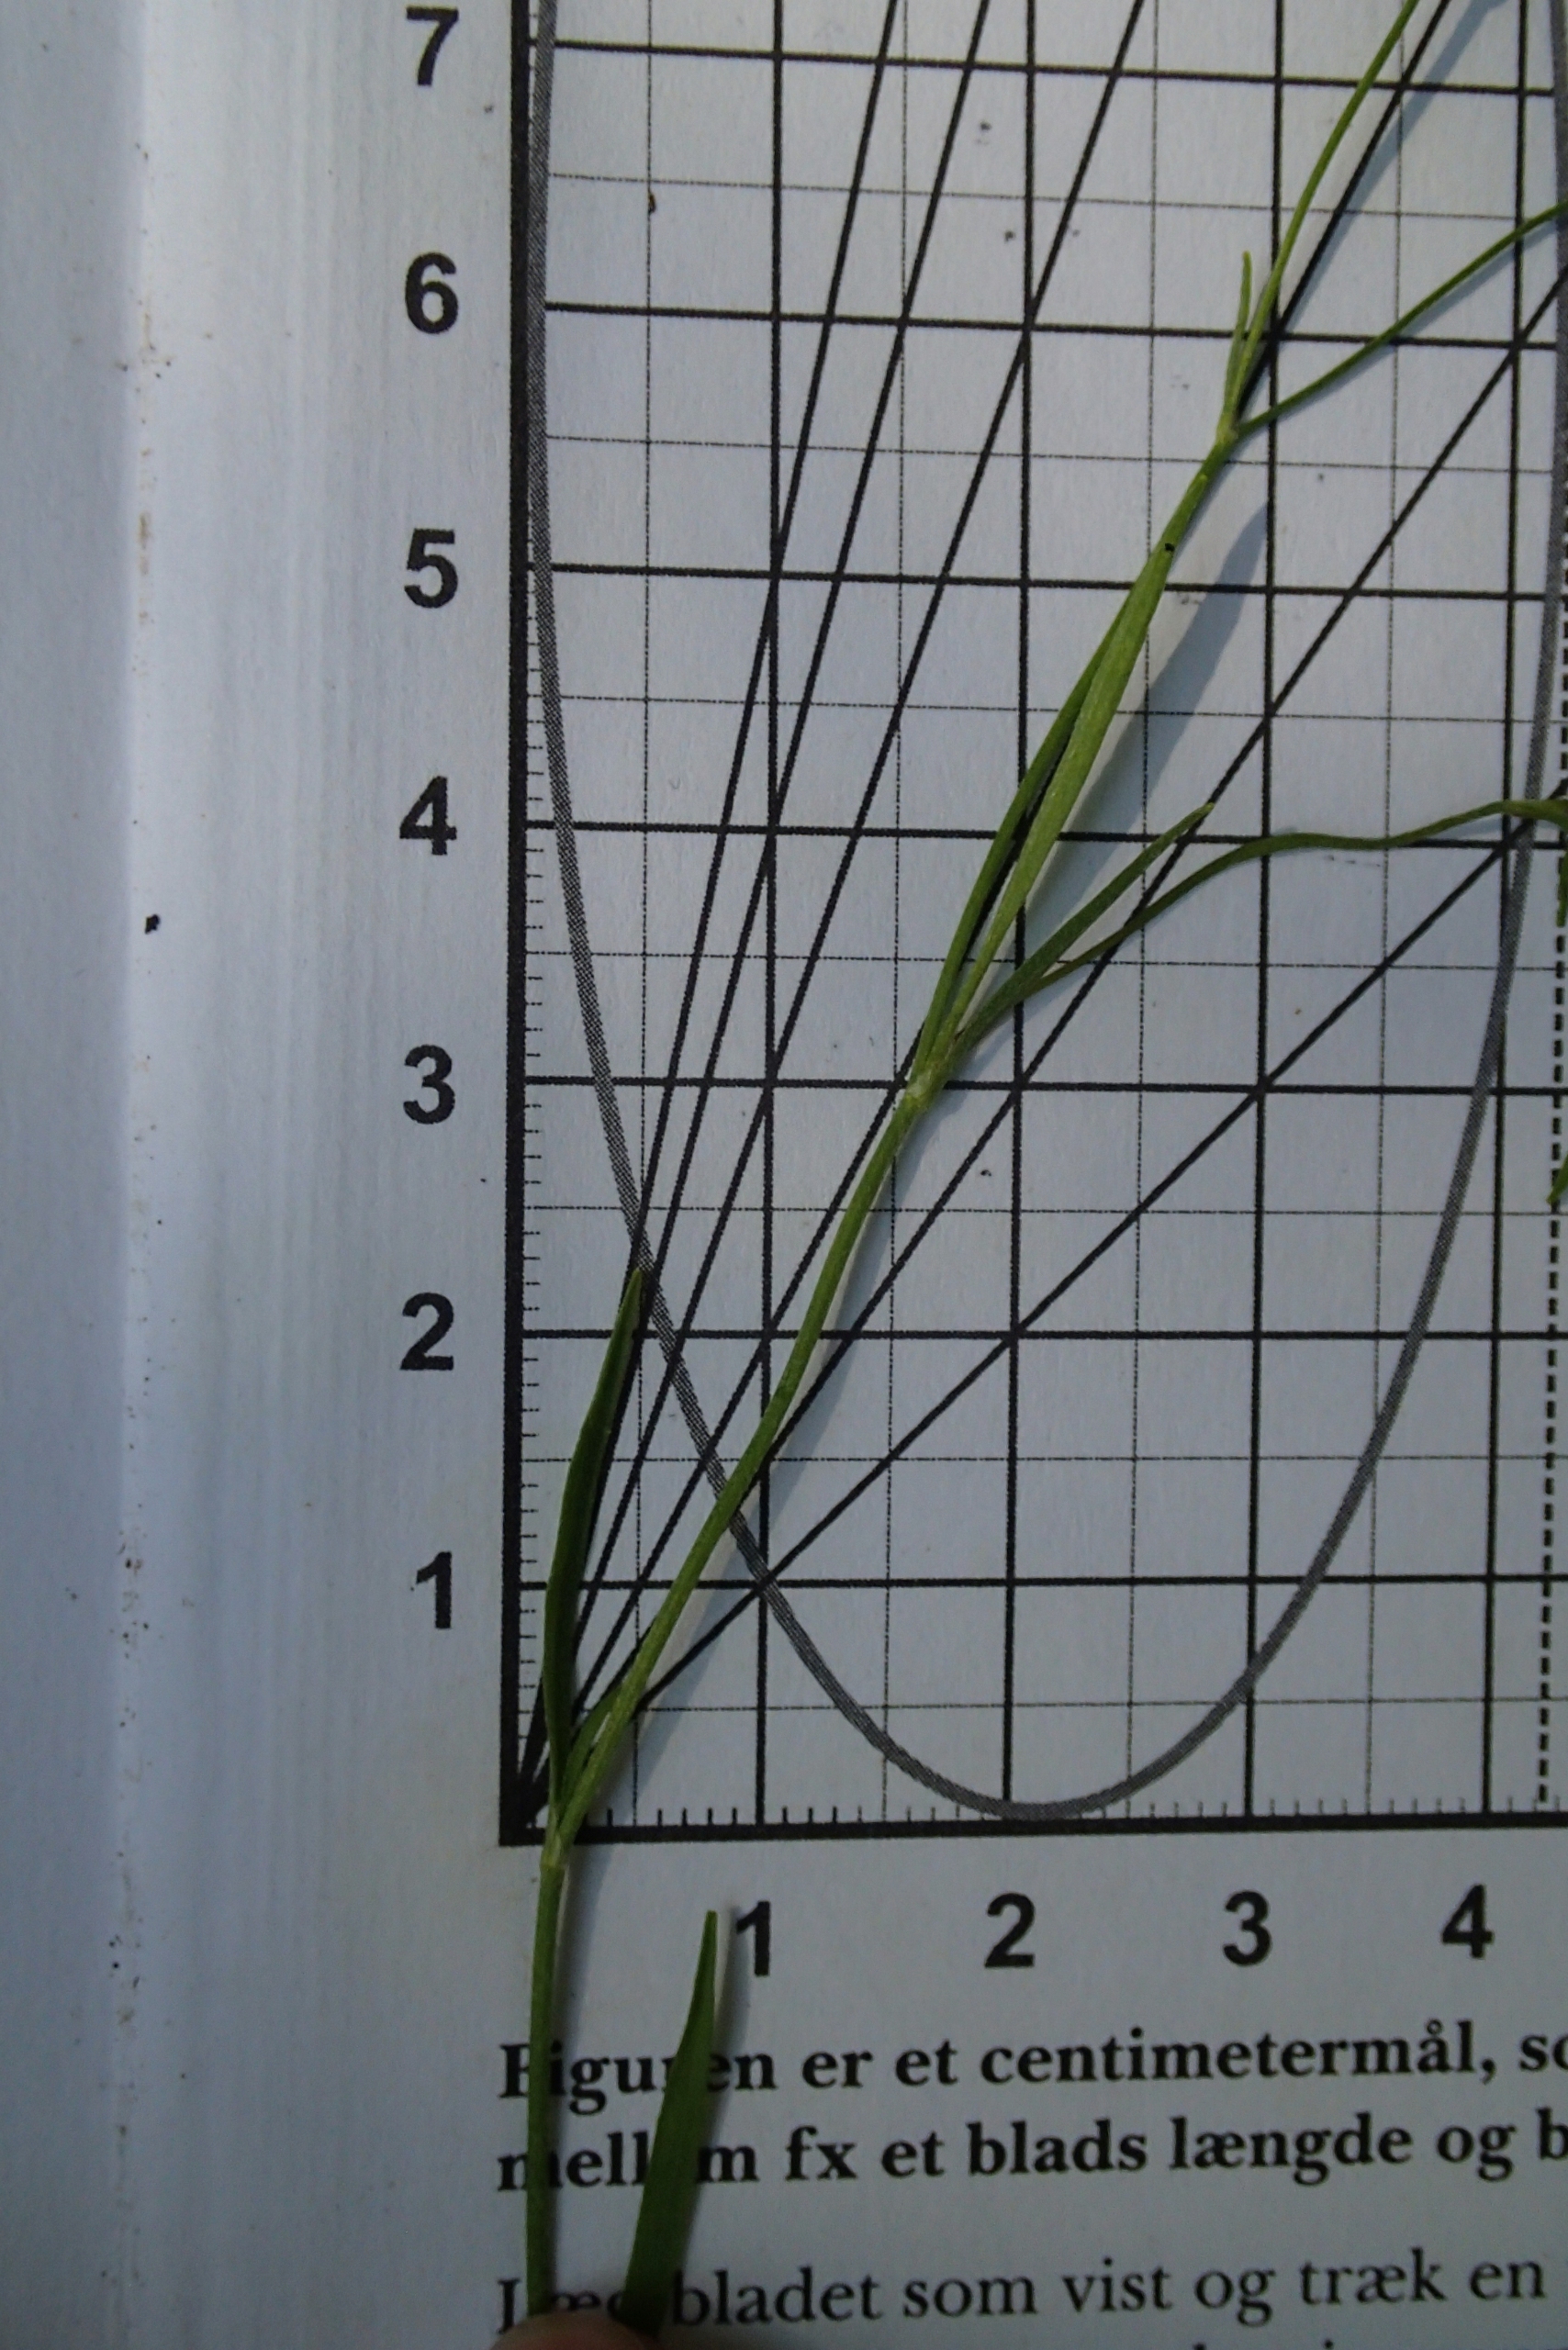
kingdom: Plantae
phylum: Tracheophyta
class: Magnoliopsida
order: Ranunculales
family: Ranunculaceae
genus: Ranunculus
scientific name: Ranunculus flammula
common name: Kær-ranunkel
